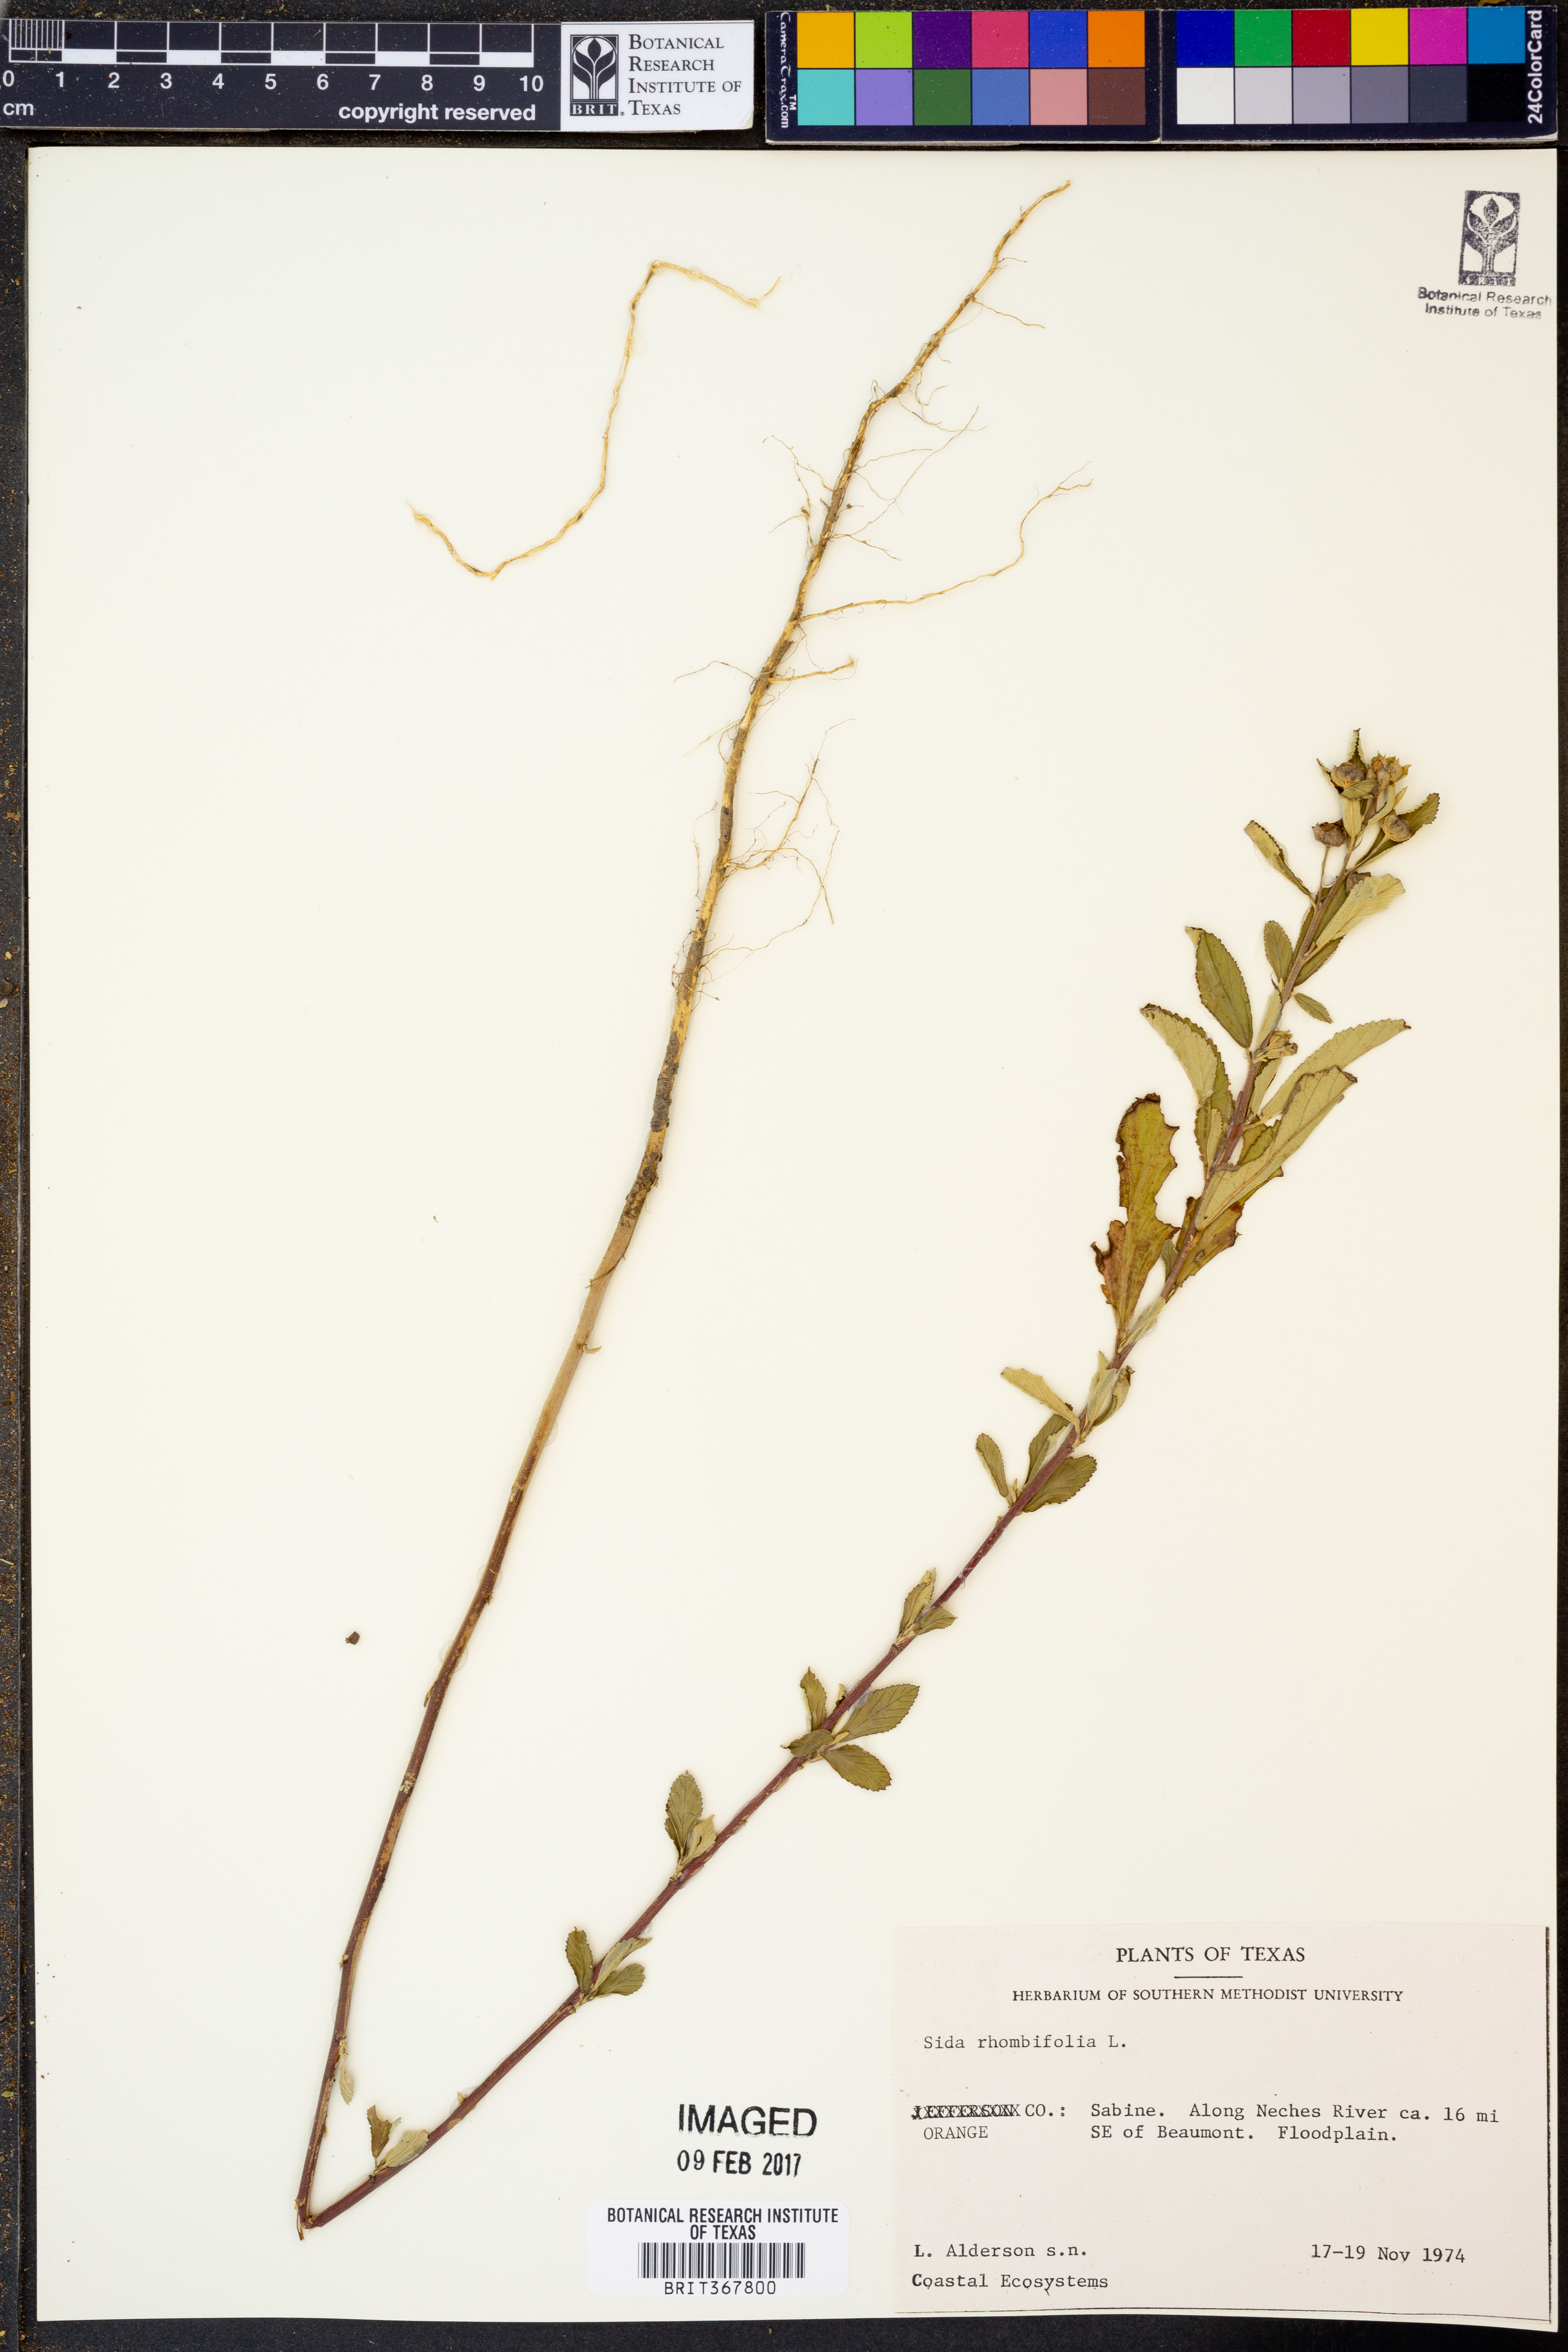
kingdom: Plantae
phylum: Tracheophyta
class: Magnoliopsida
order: Malvales
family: Malvaceae
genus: Sida
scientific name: Sida rhombifolia
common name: Queensland-hemp
